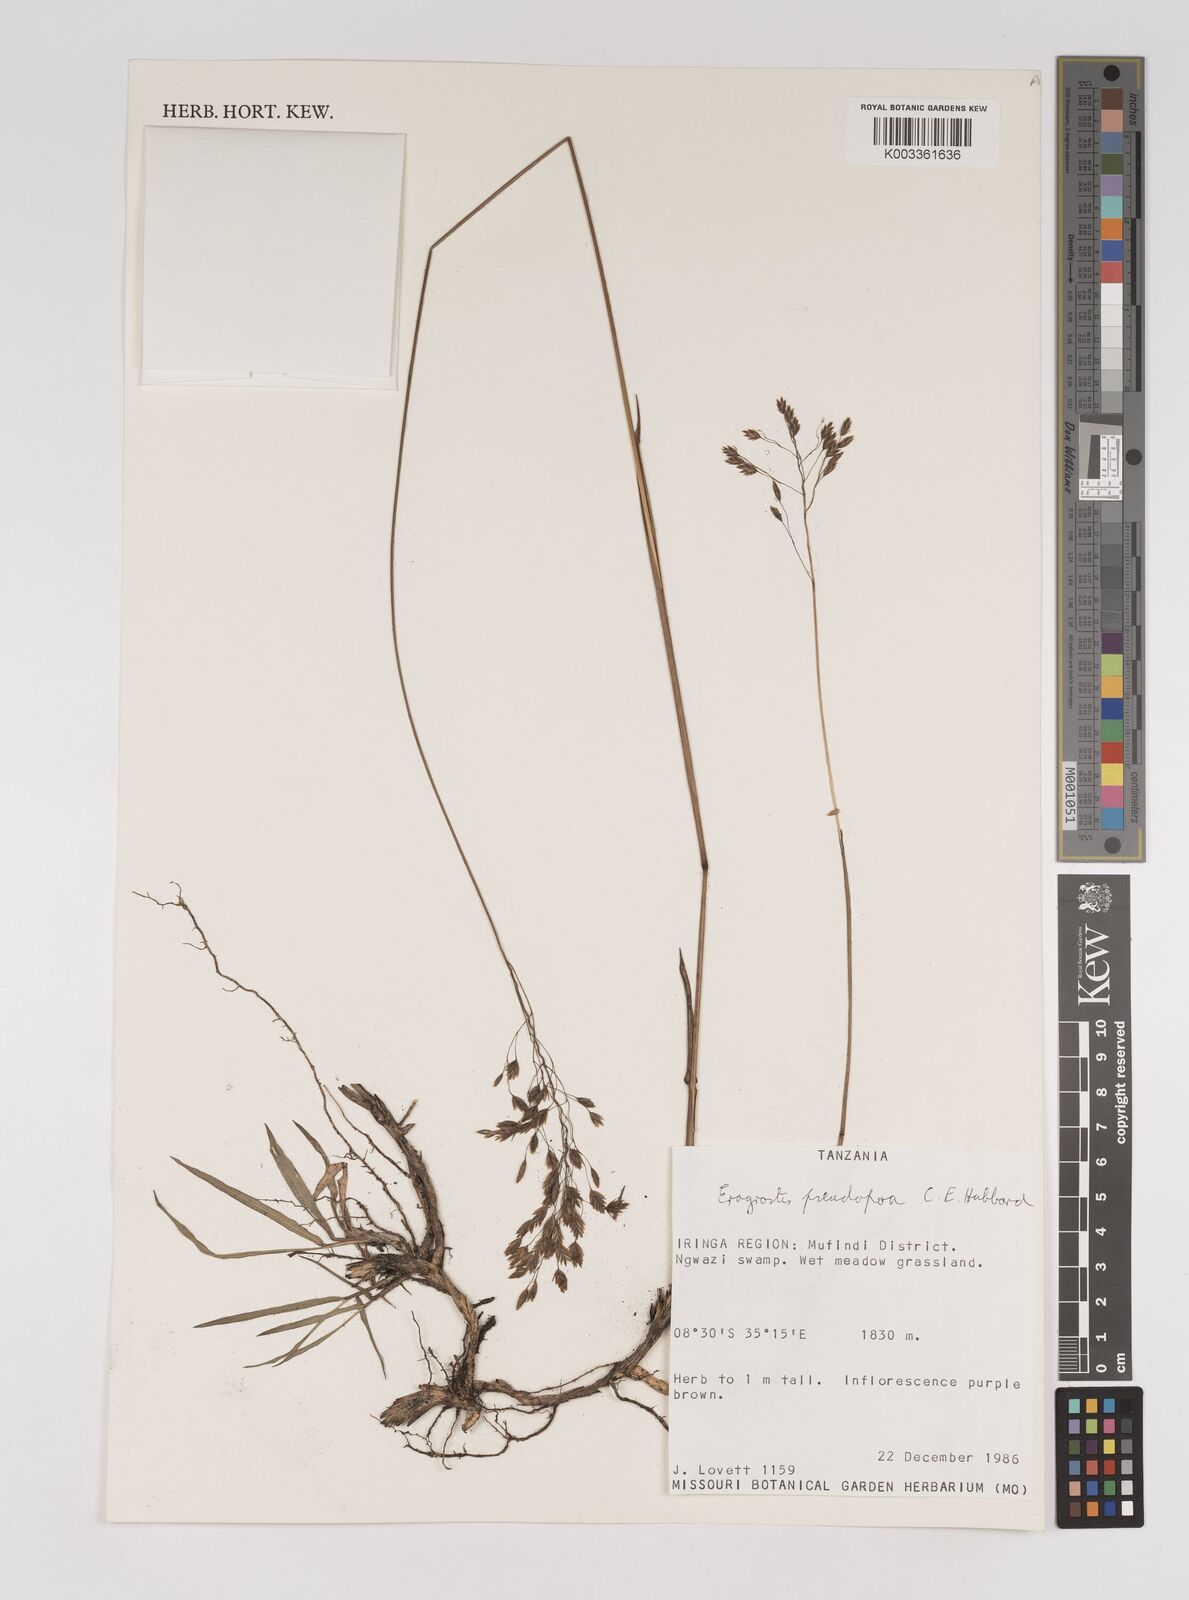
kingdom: Plantae
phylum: Tracheophyta
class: Liliopsida
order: Poales
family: Poaceae
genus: Eragrostis
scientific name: Eragrostis pseudopoa
